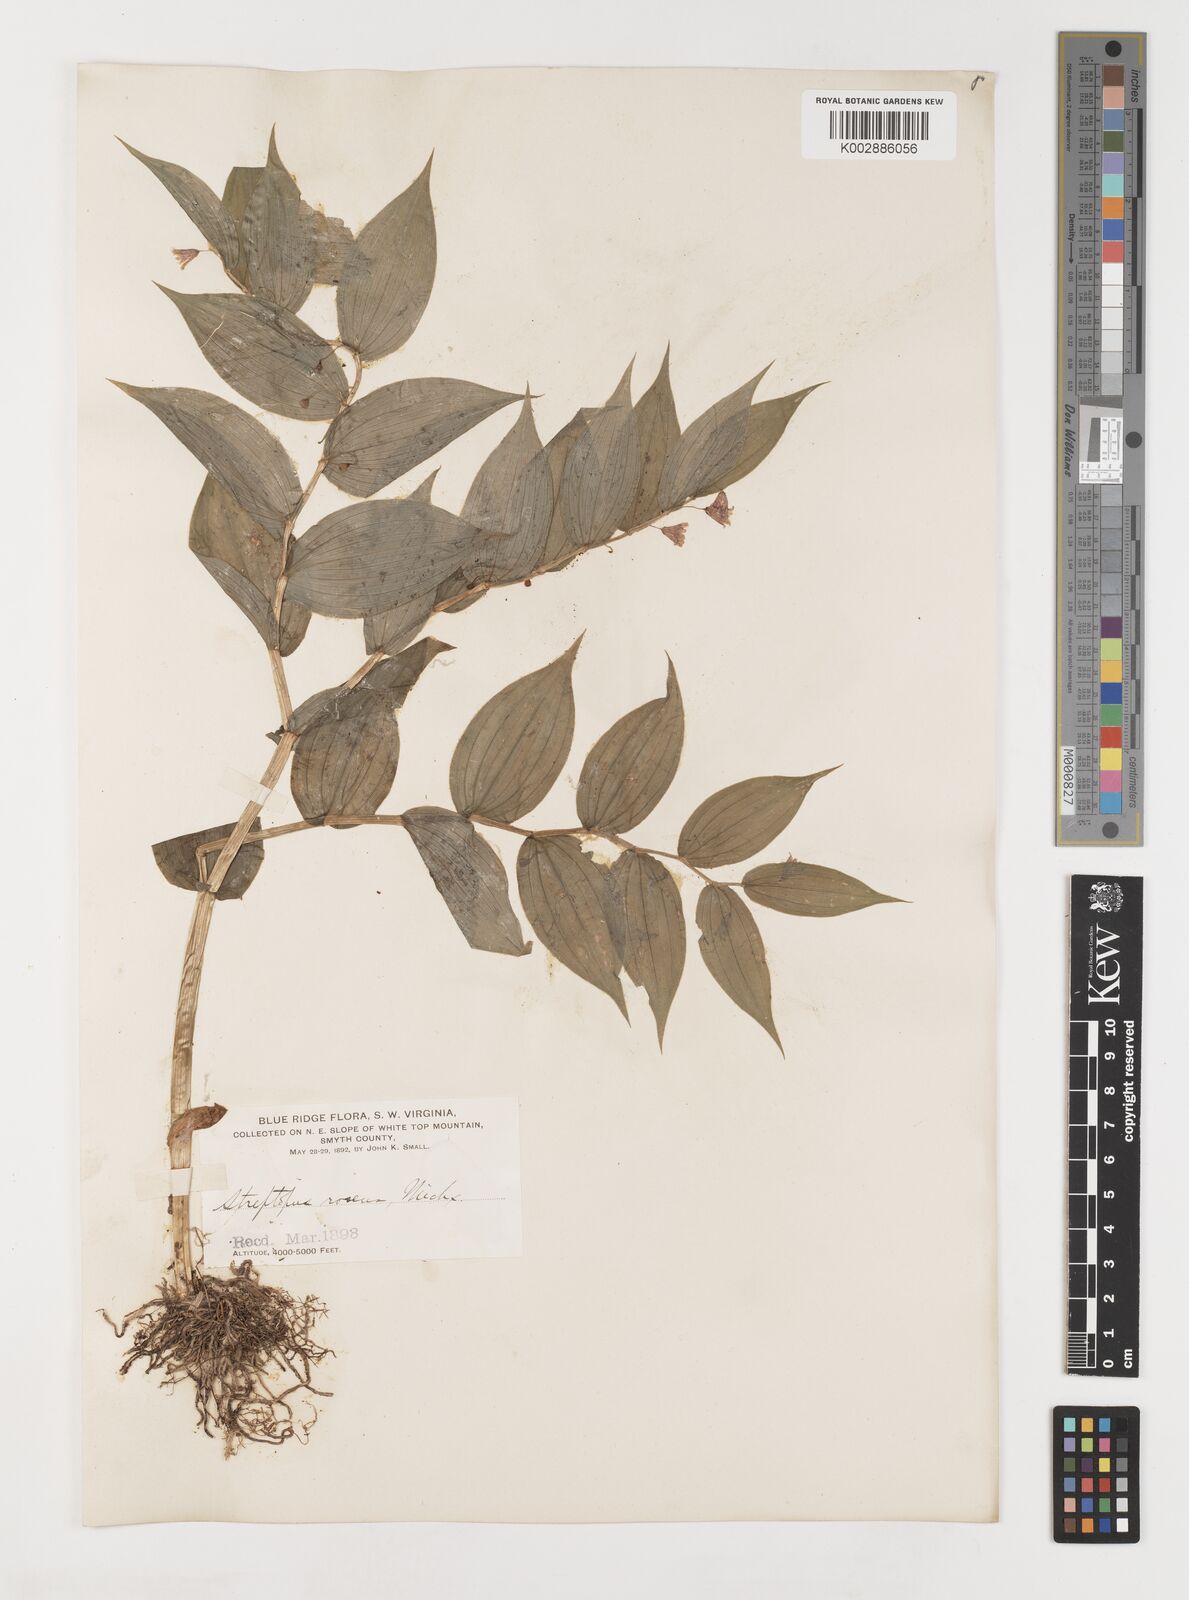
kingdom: Plantae
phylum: Tracheophyta
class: Liliopsida
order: Liliales
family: Liliaceae
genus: Streptopus
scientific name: Streptopus lanceolatus
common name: Rose mandarin
